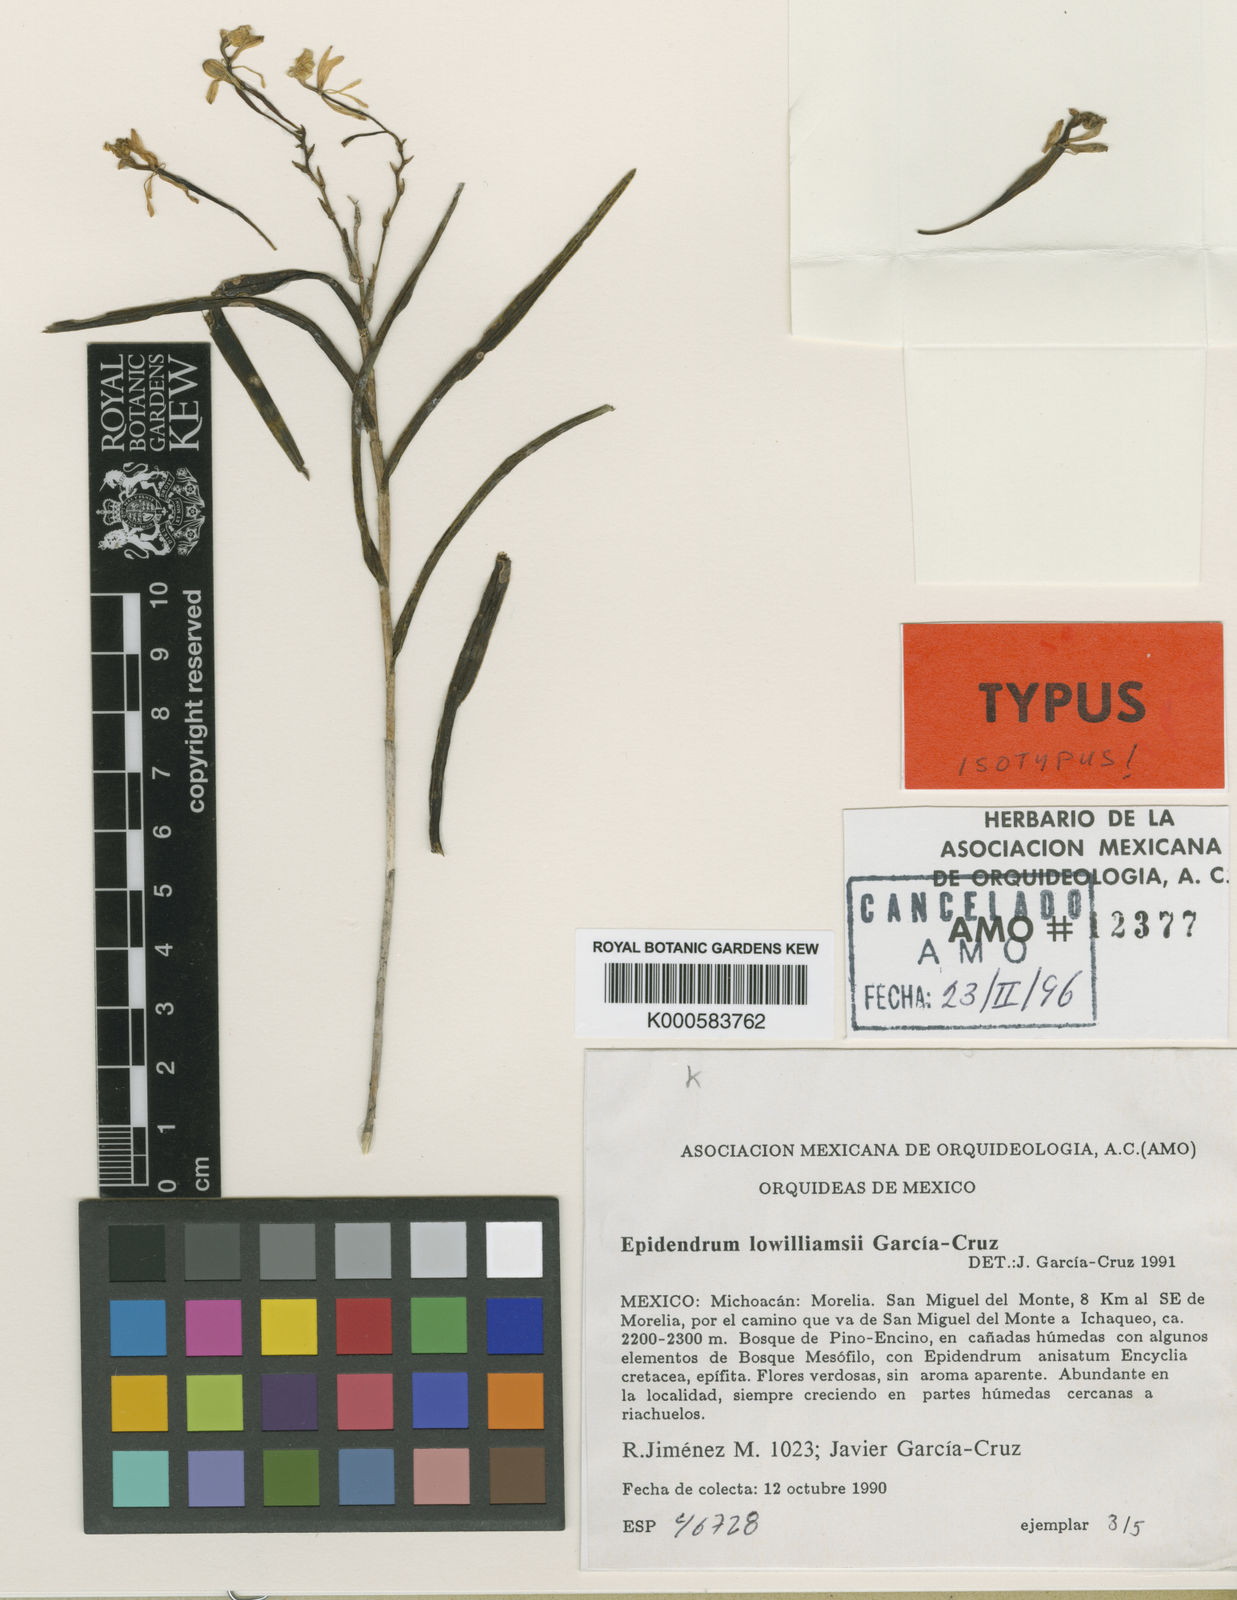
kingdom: Plantae
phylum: Tracheophyta
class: Liliopsida
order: Asparagales
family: Orchidaceae
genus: Epidendrum
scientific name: Epidendrum
